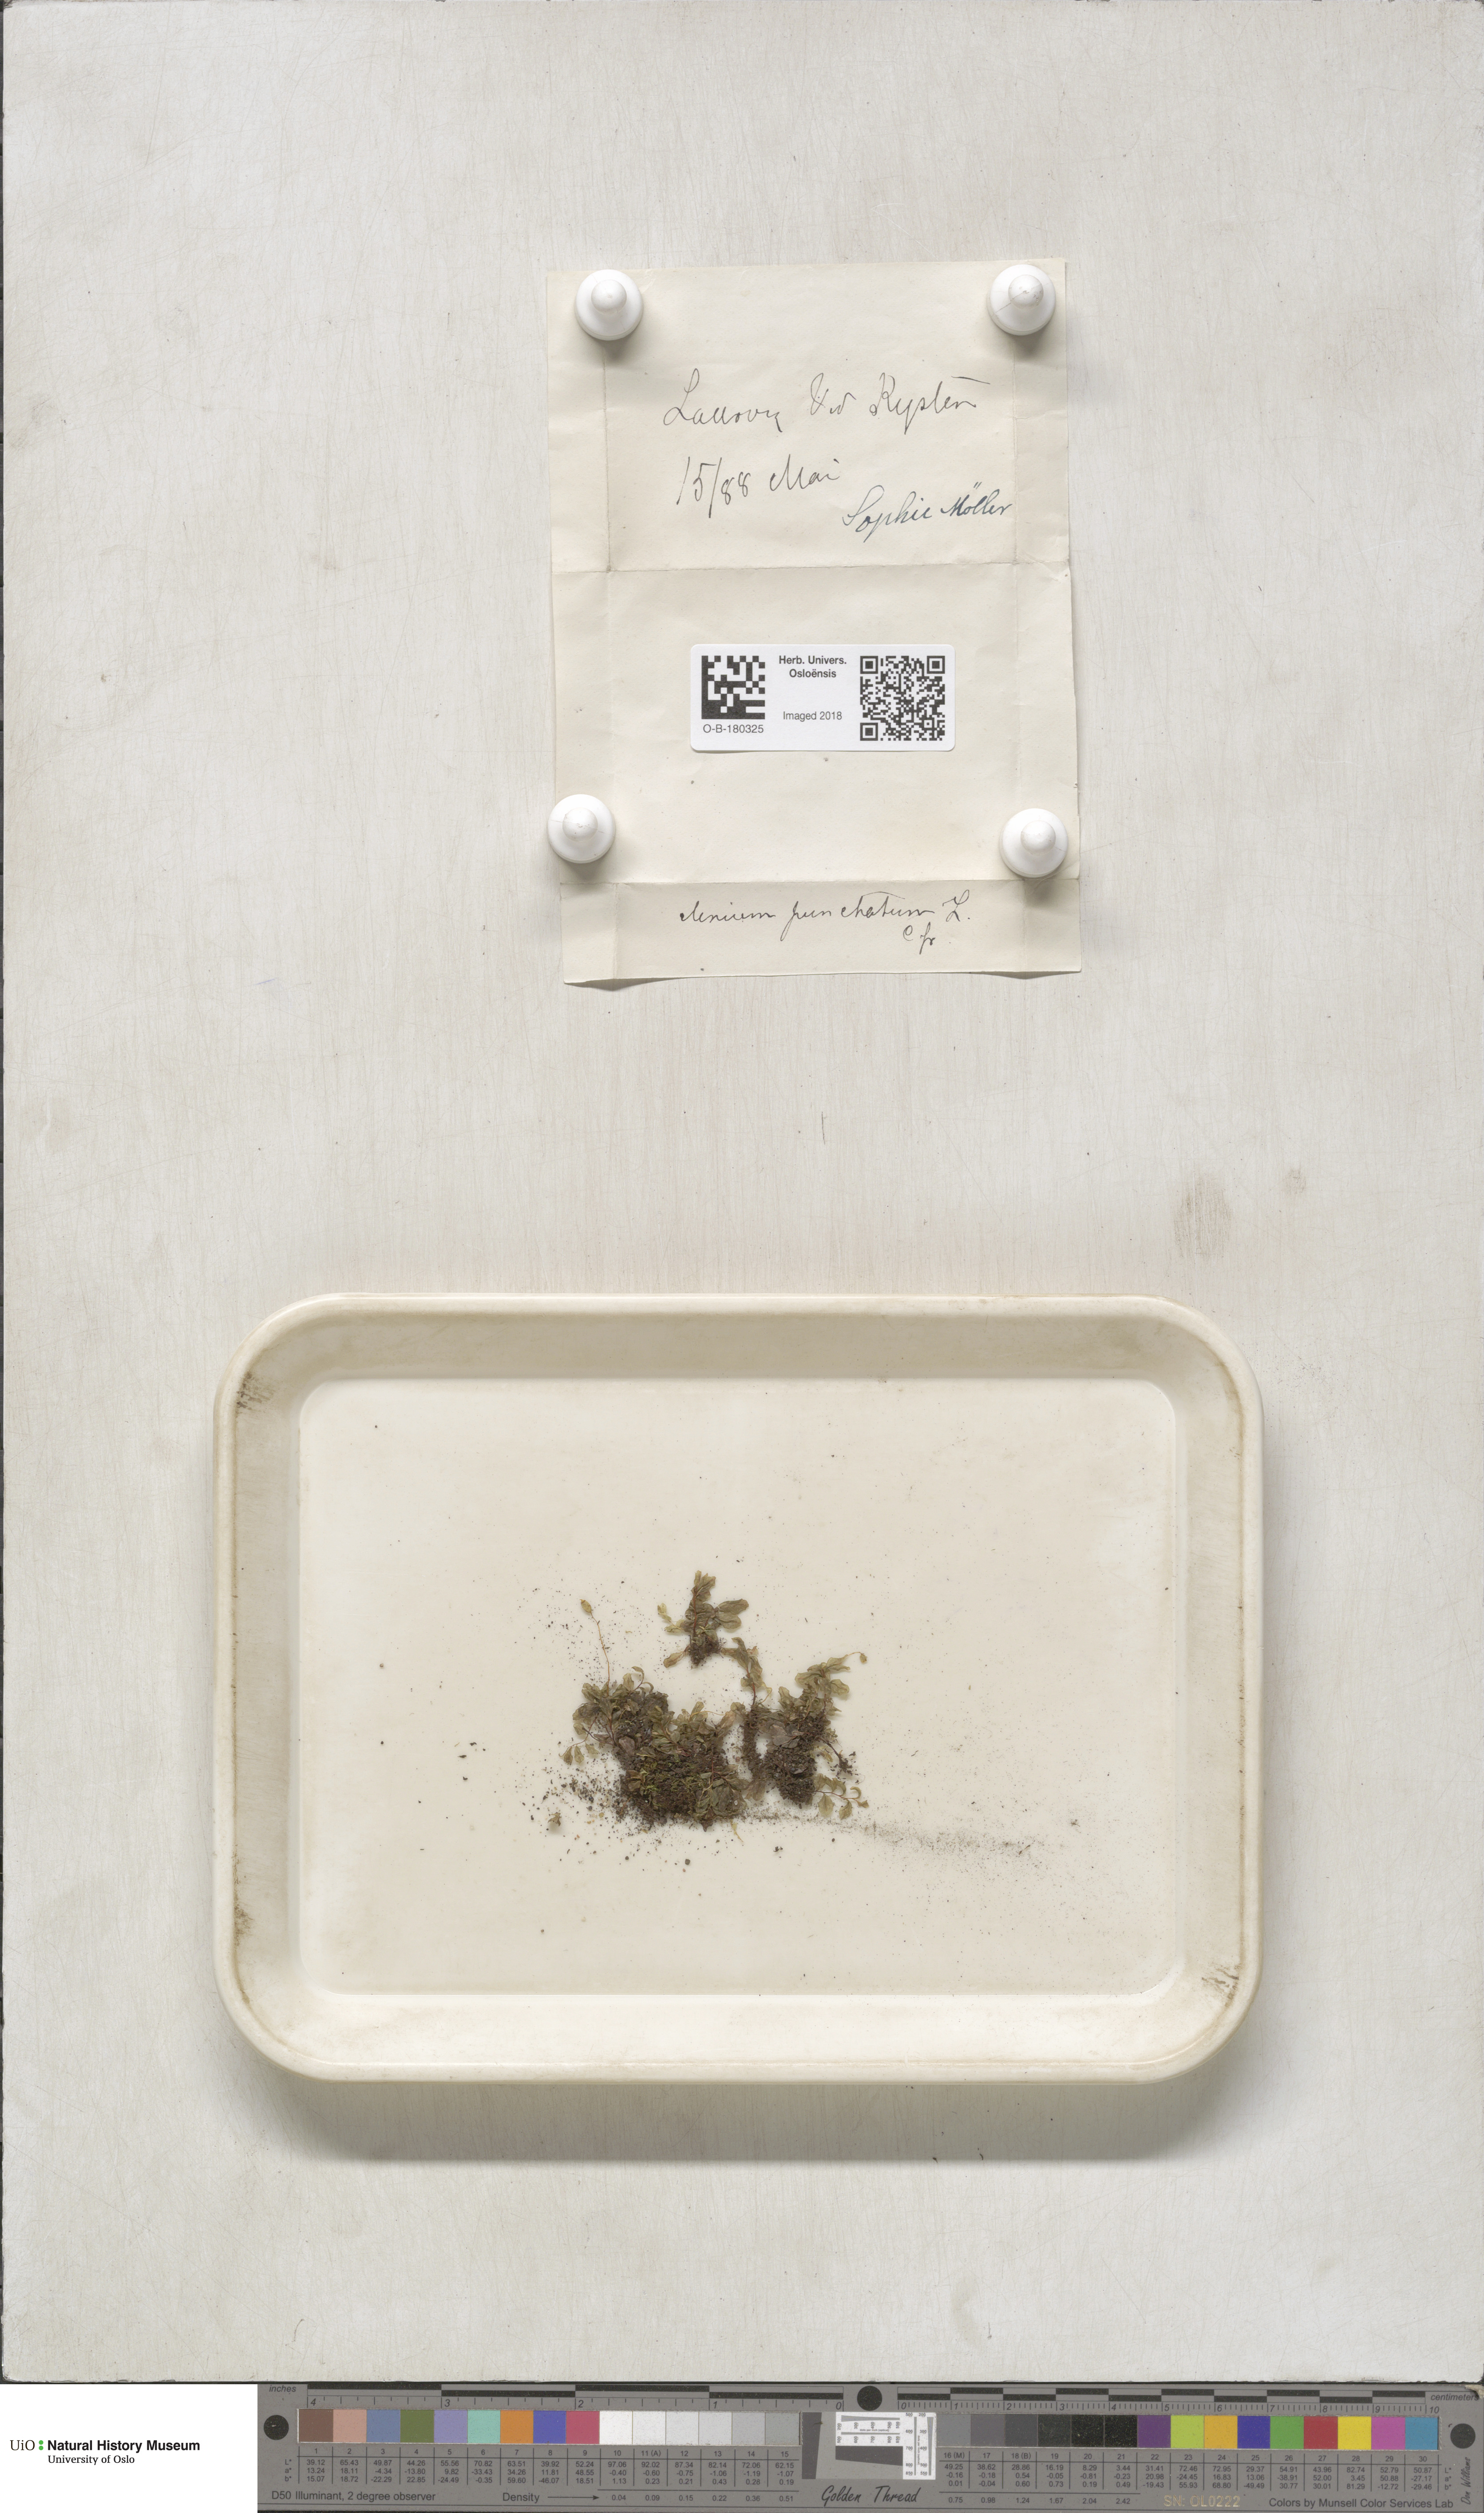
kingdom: Plantae
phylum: Bryophyta
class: Bryopsida
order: Bryales
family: Mniaceae
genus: Rhizomnium
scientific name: Rhizomnium punctatum
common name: Dotted leafy moss
